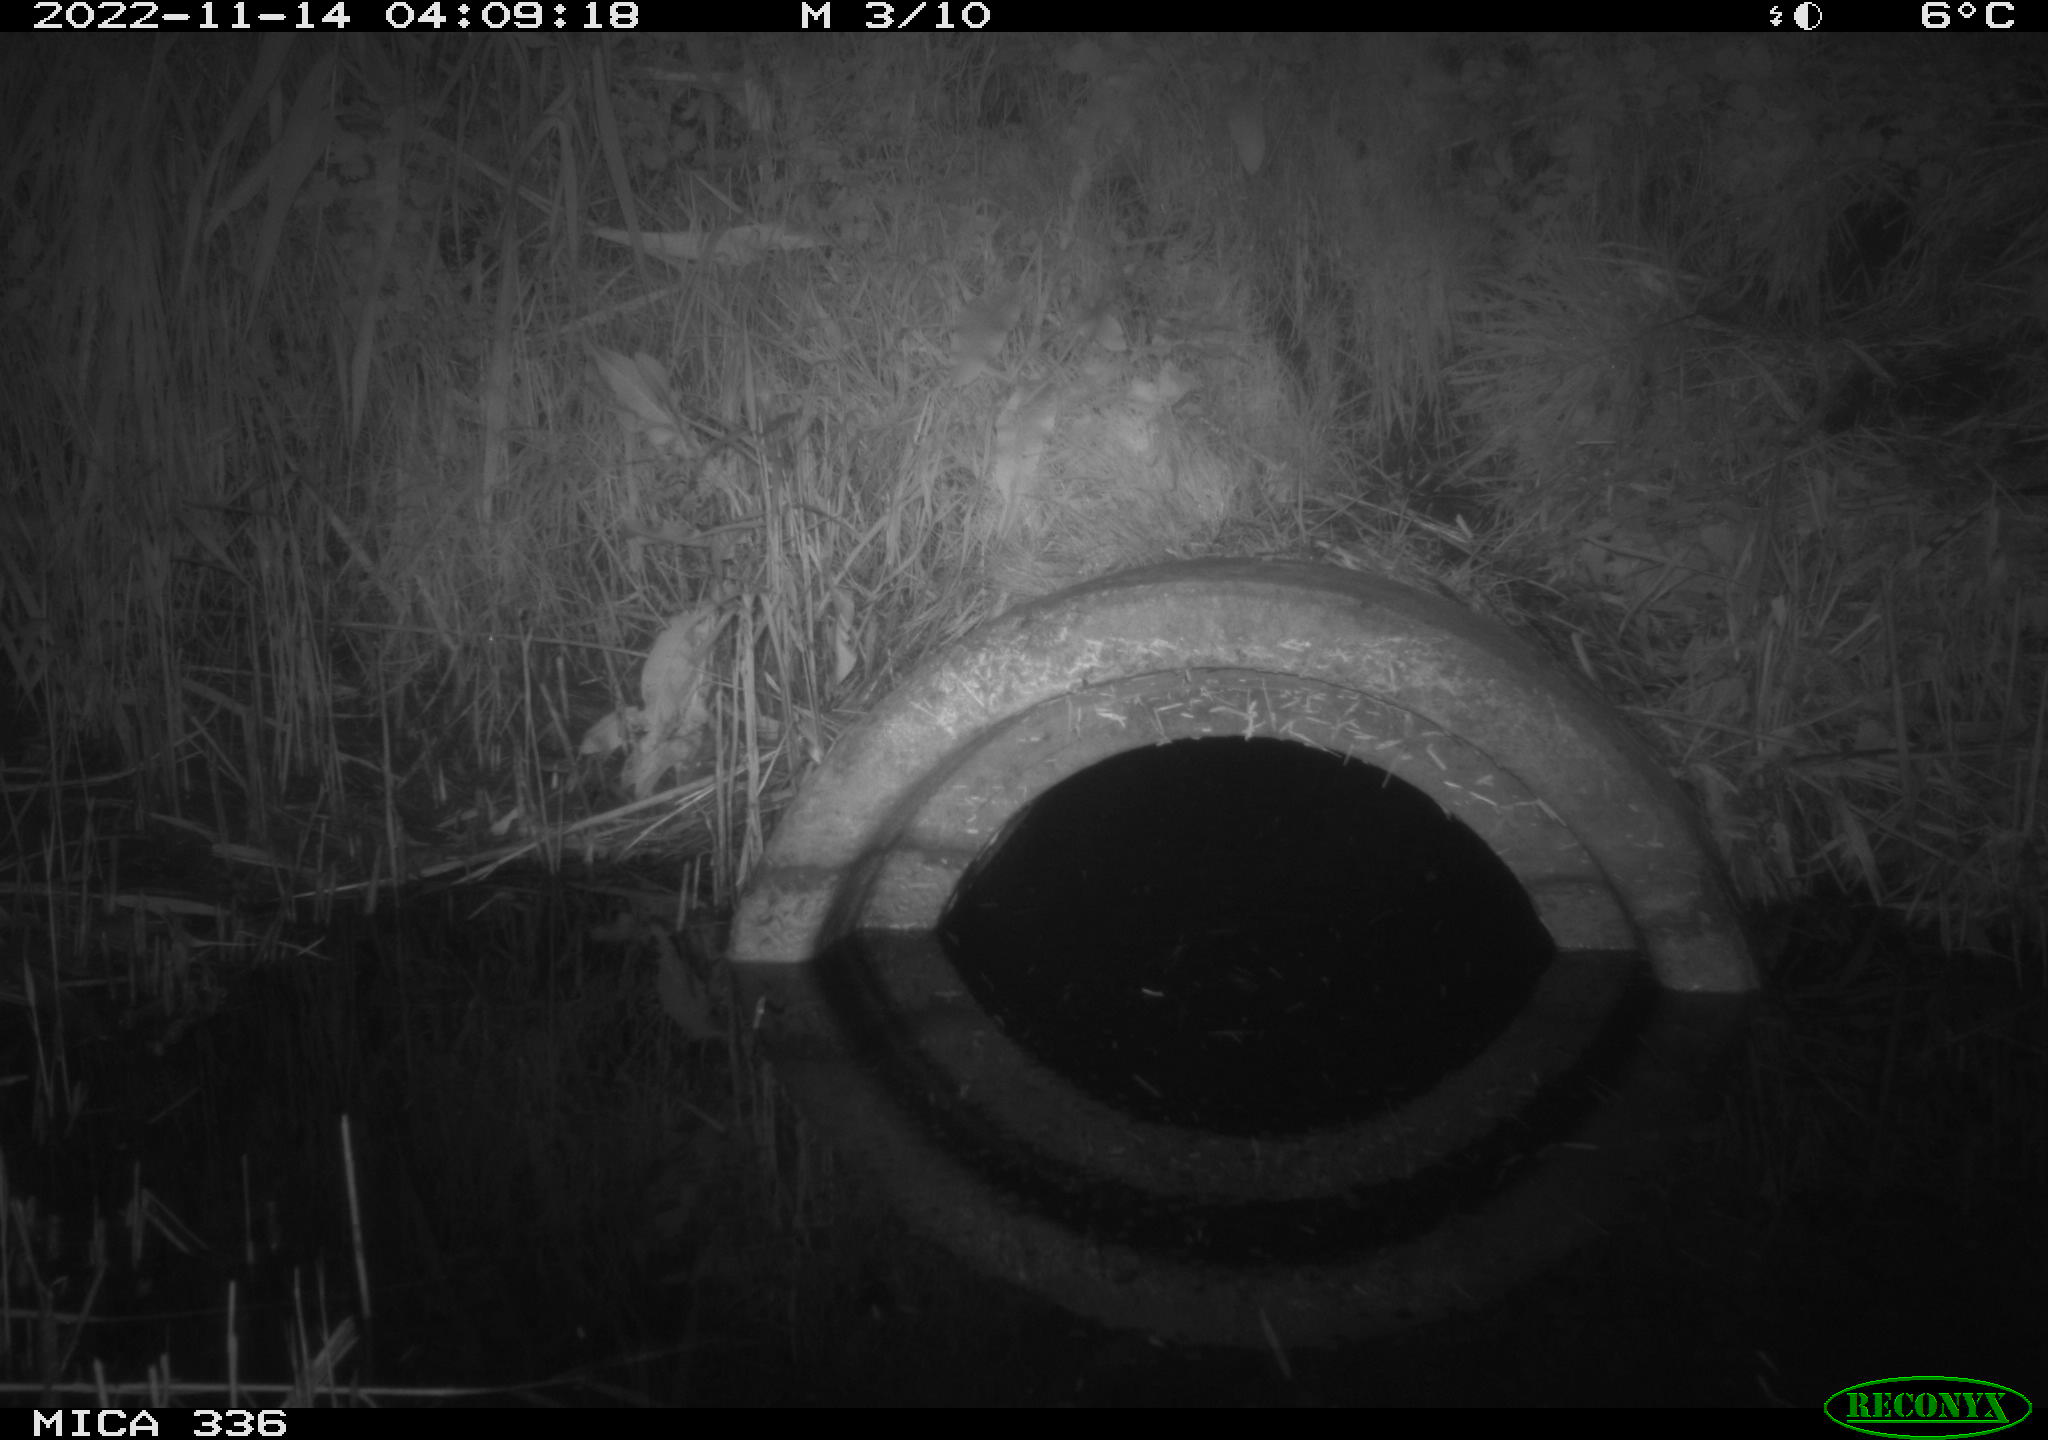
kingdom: Animalia
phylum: Chordata
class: Mammalia
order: Carnivora
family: Mustelidae
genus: Martes
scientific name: Martes foina
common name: Beech marten
